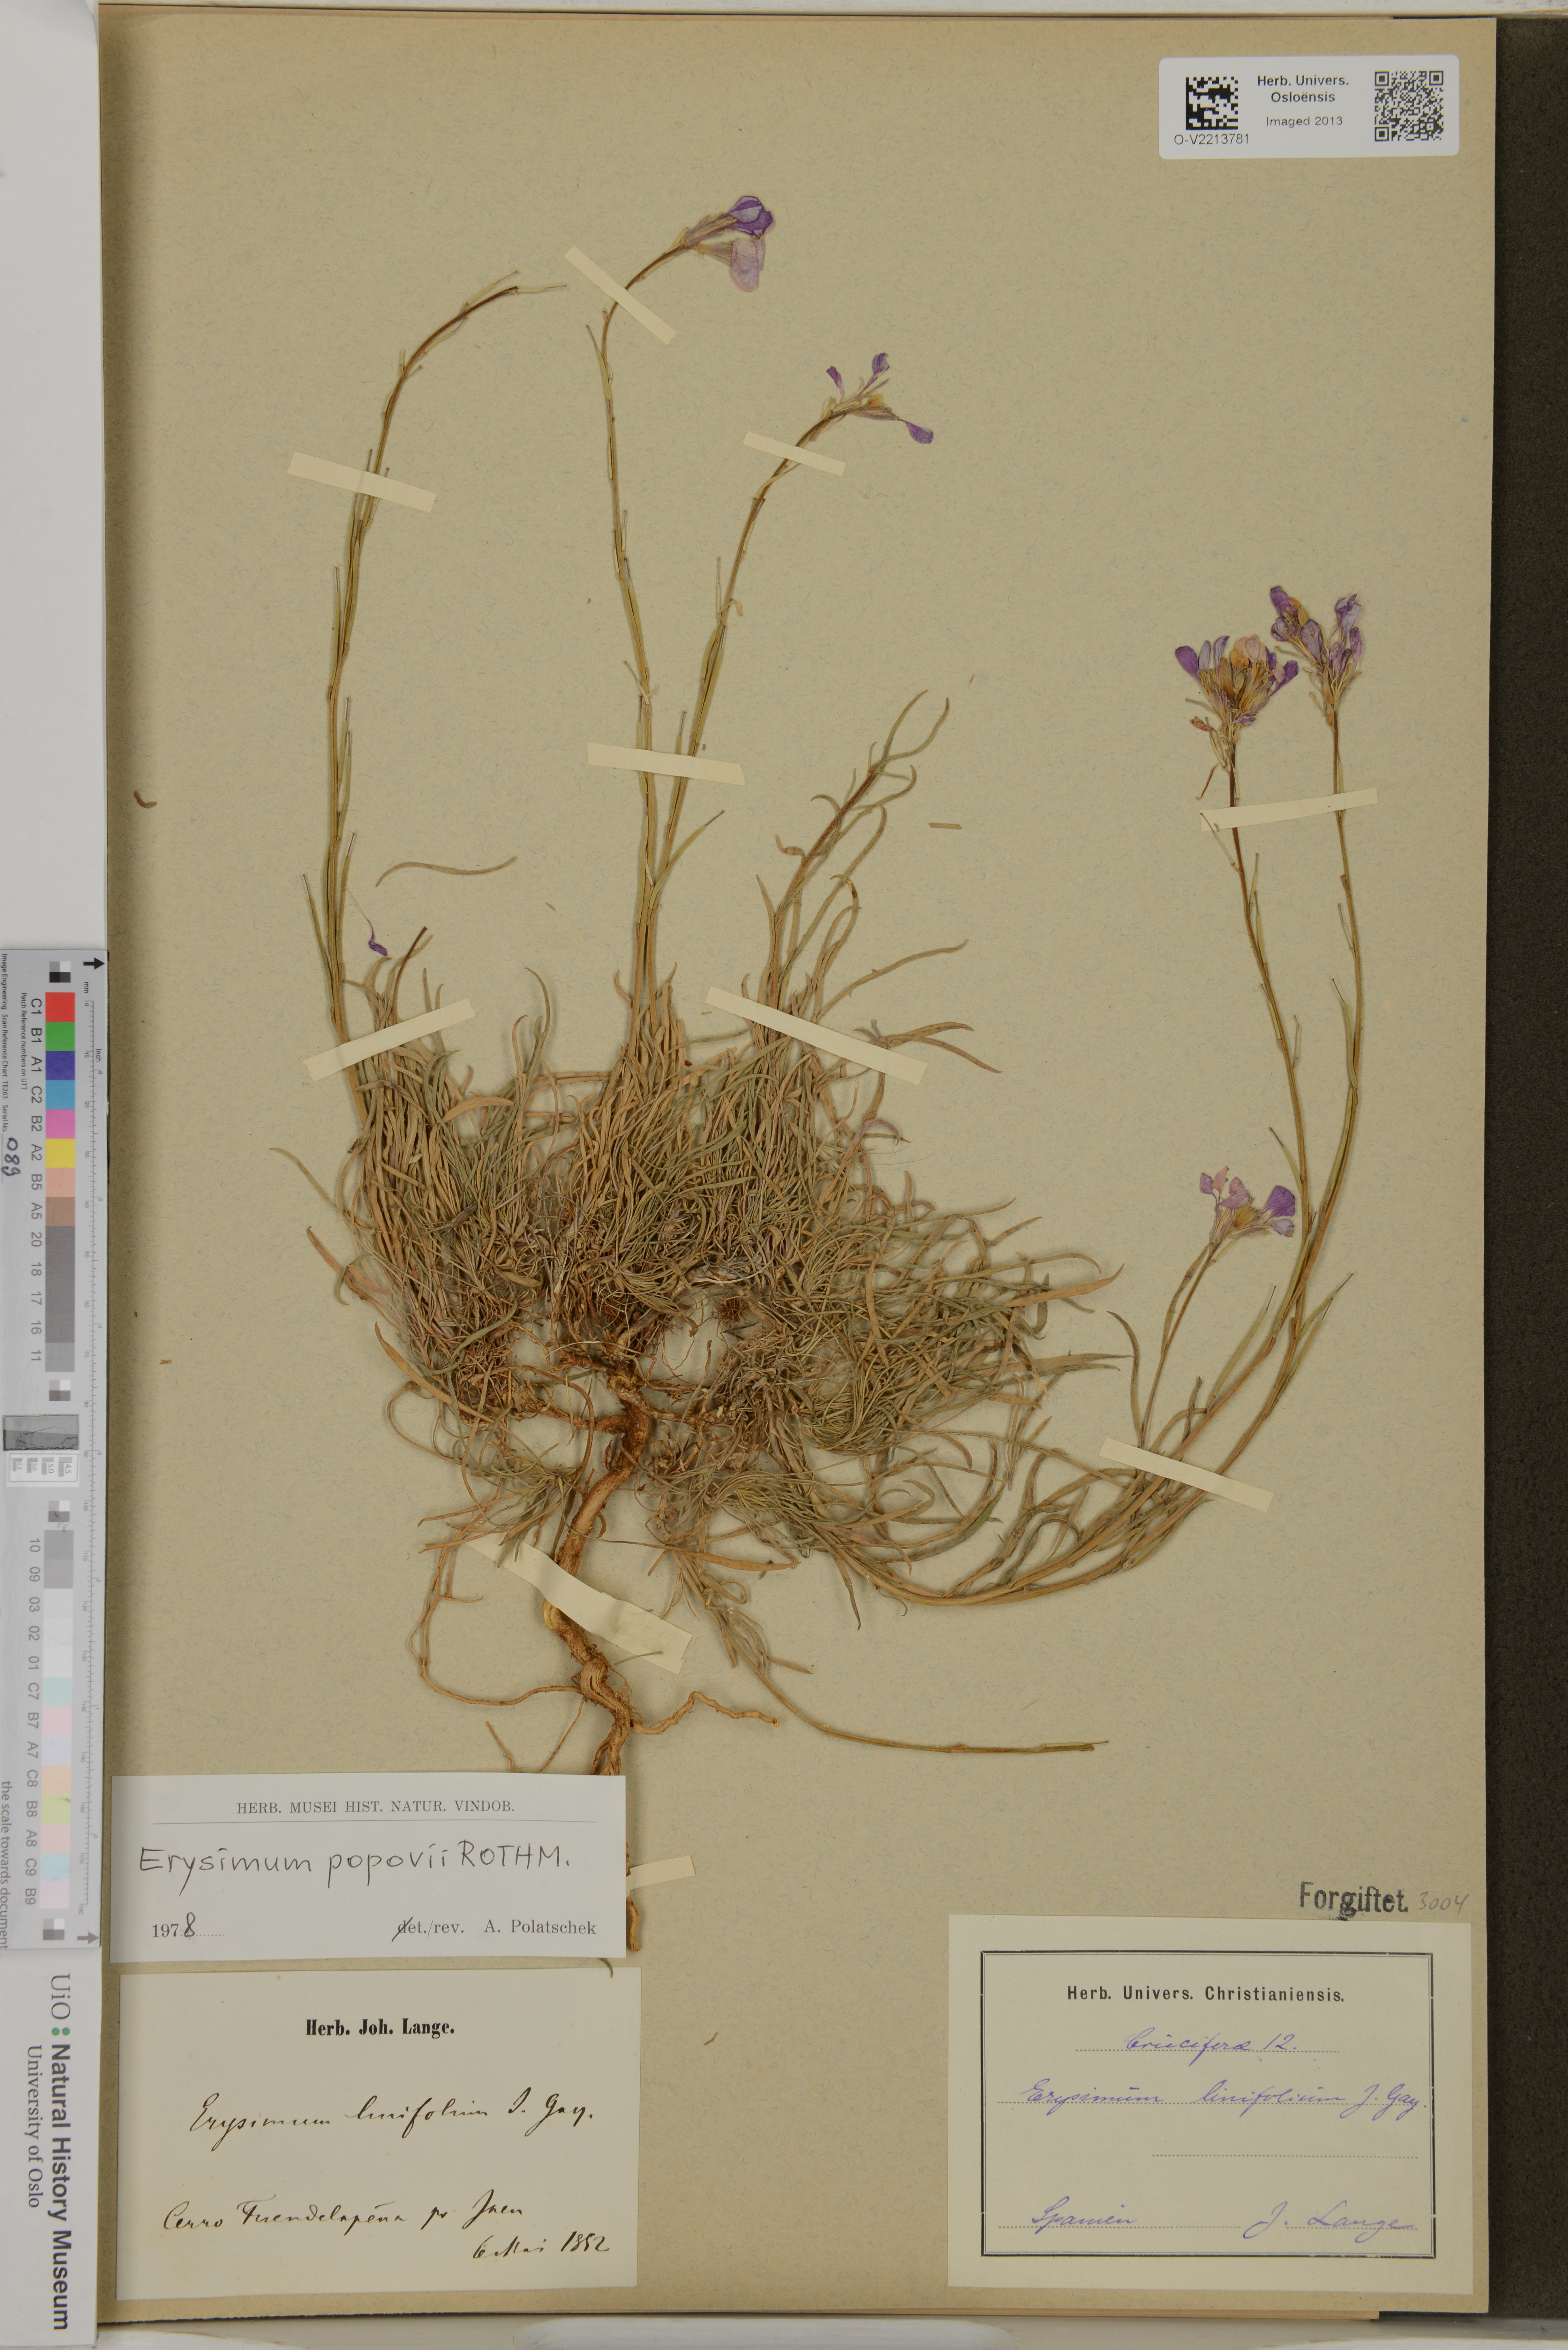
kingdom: Plantae
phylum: Tracheophyta
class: Magnoliopsida
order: Brassicales
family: Brassicaceae
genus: Erysimum
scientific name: Erysimum popovii
